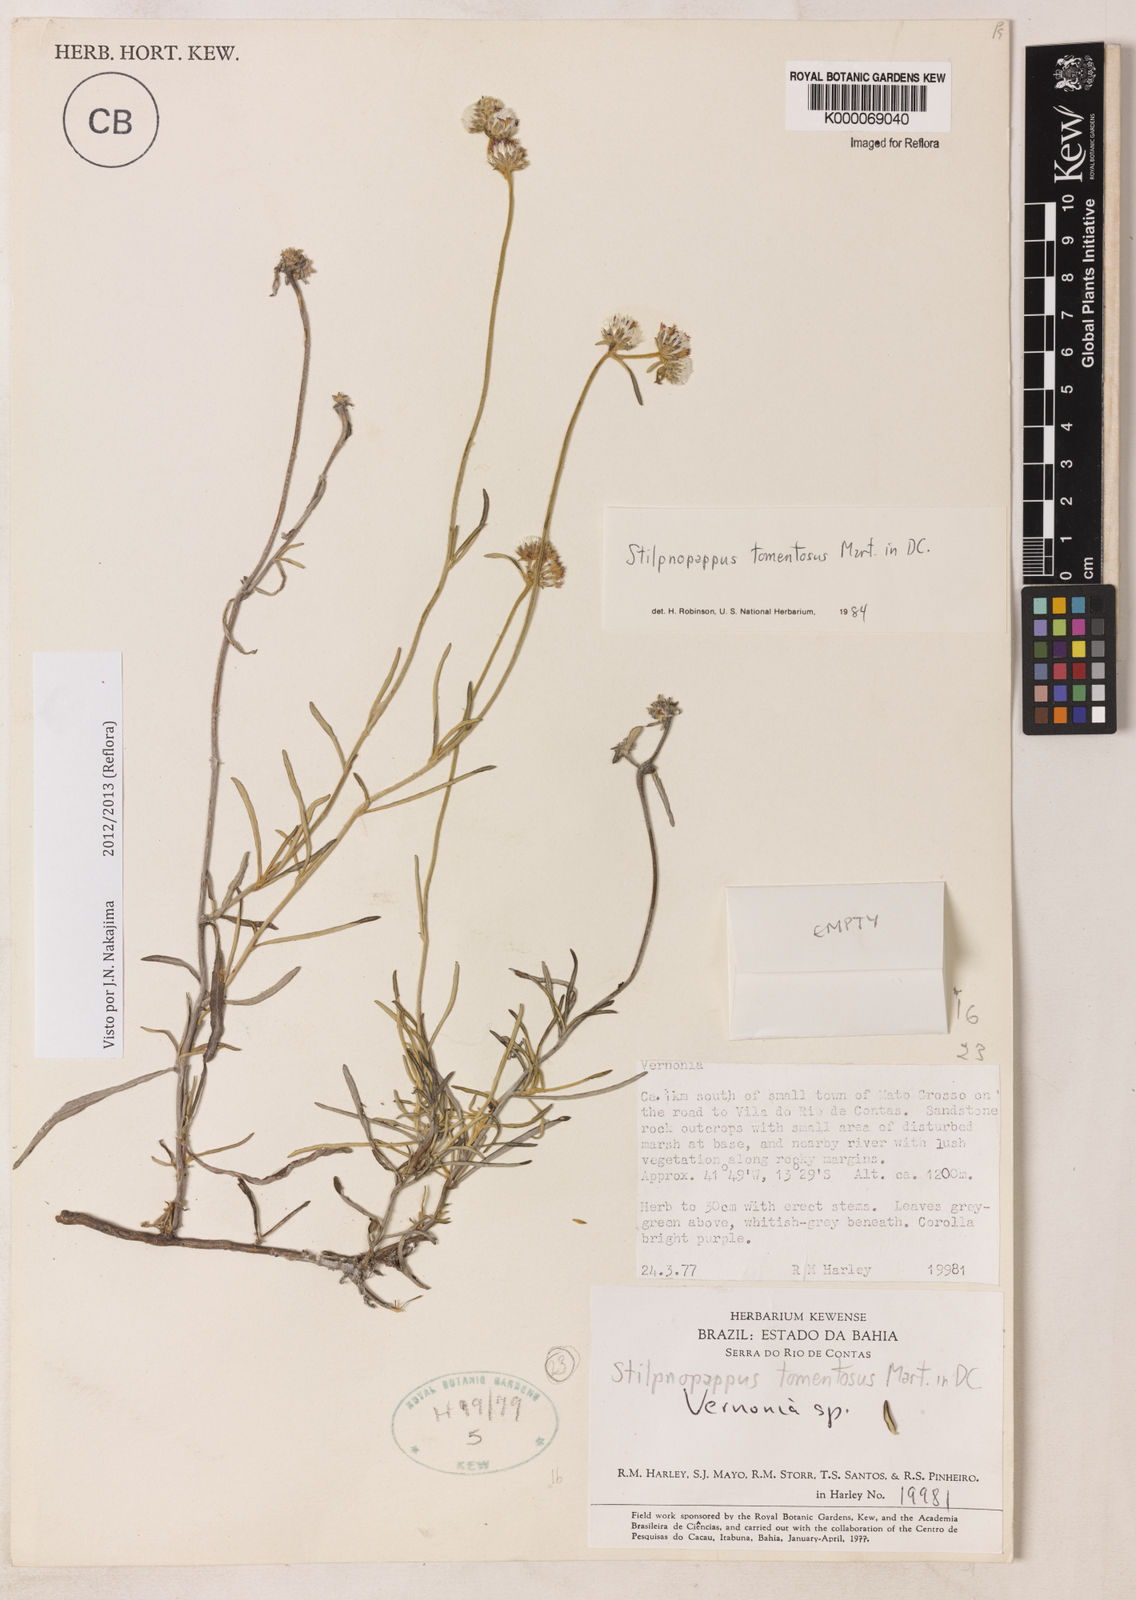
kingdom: Plantae
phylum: Tracheophyta
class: Magnoliopsida
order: Asterales
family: Asteraceae
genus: Stilpnopappus
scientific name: Stilpnopappus tomentosus
